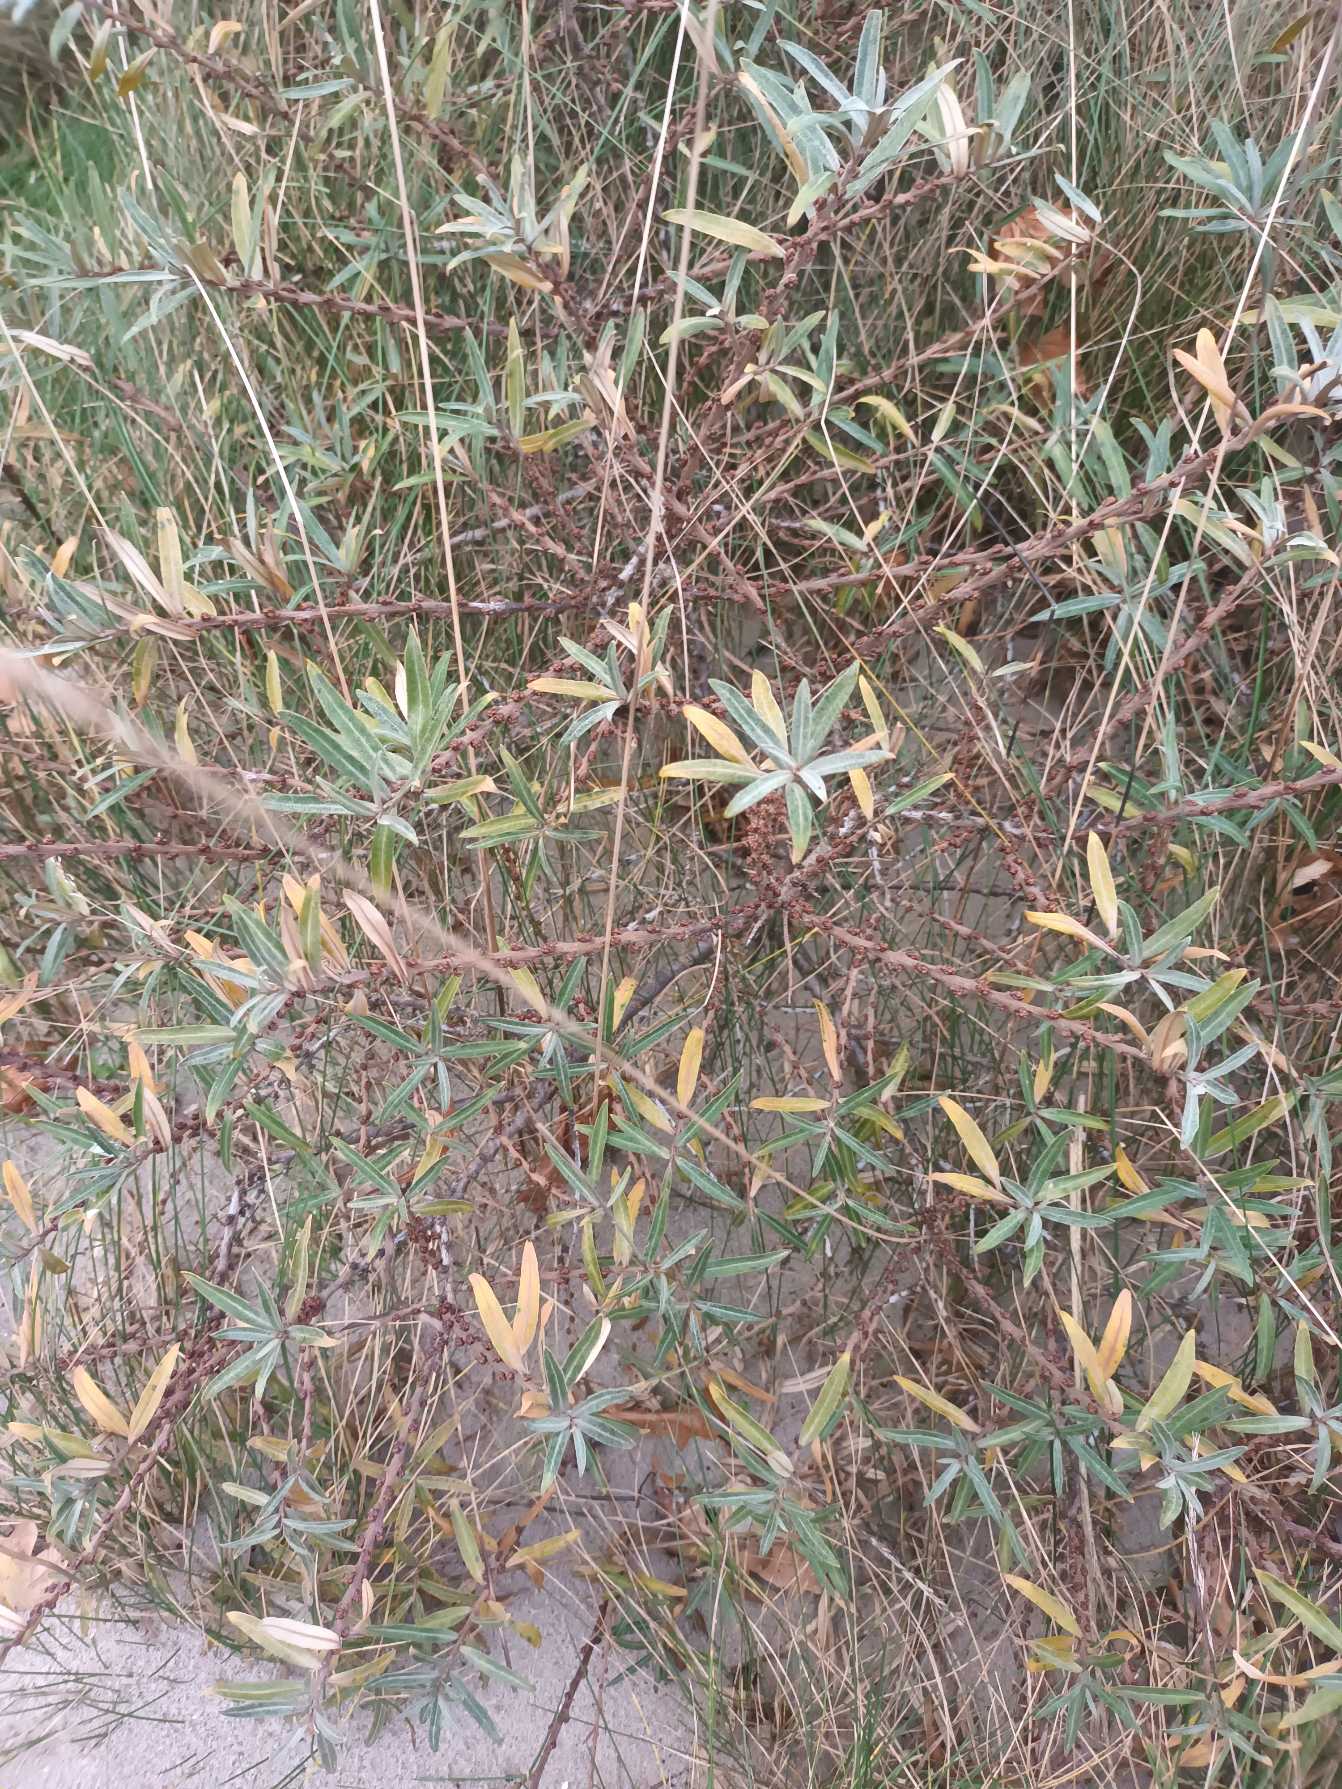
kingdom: Plantae
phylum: Tracheophyta
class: Magnoliopsida
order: Rosales
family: Elaeagnaceae
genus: Hippophae
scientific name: Hippophae rhamnoides
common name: Havtorn
